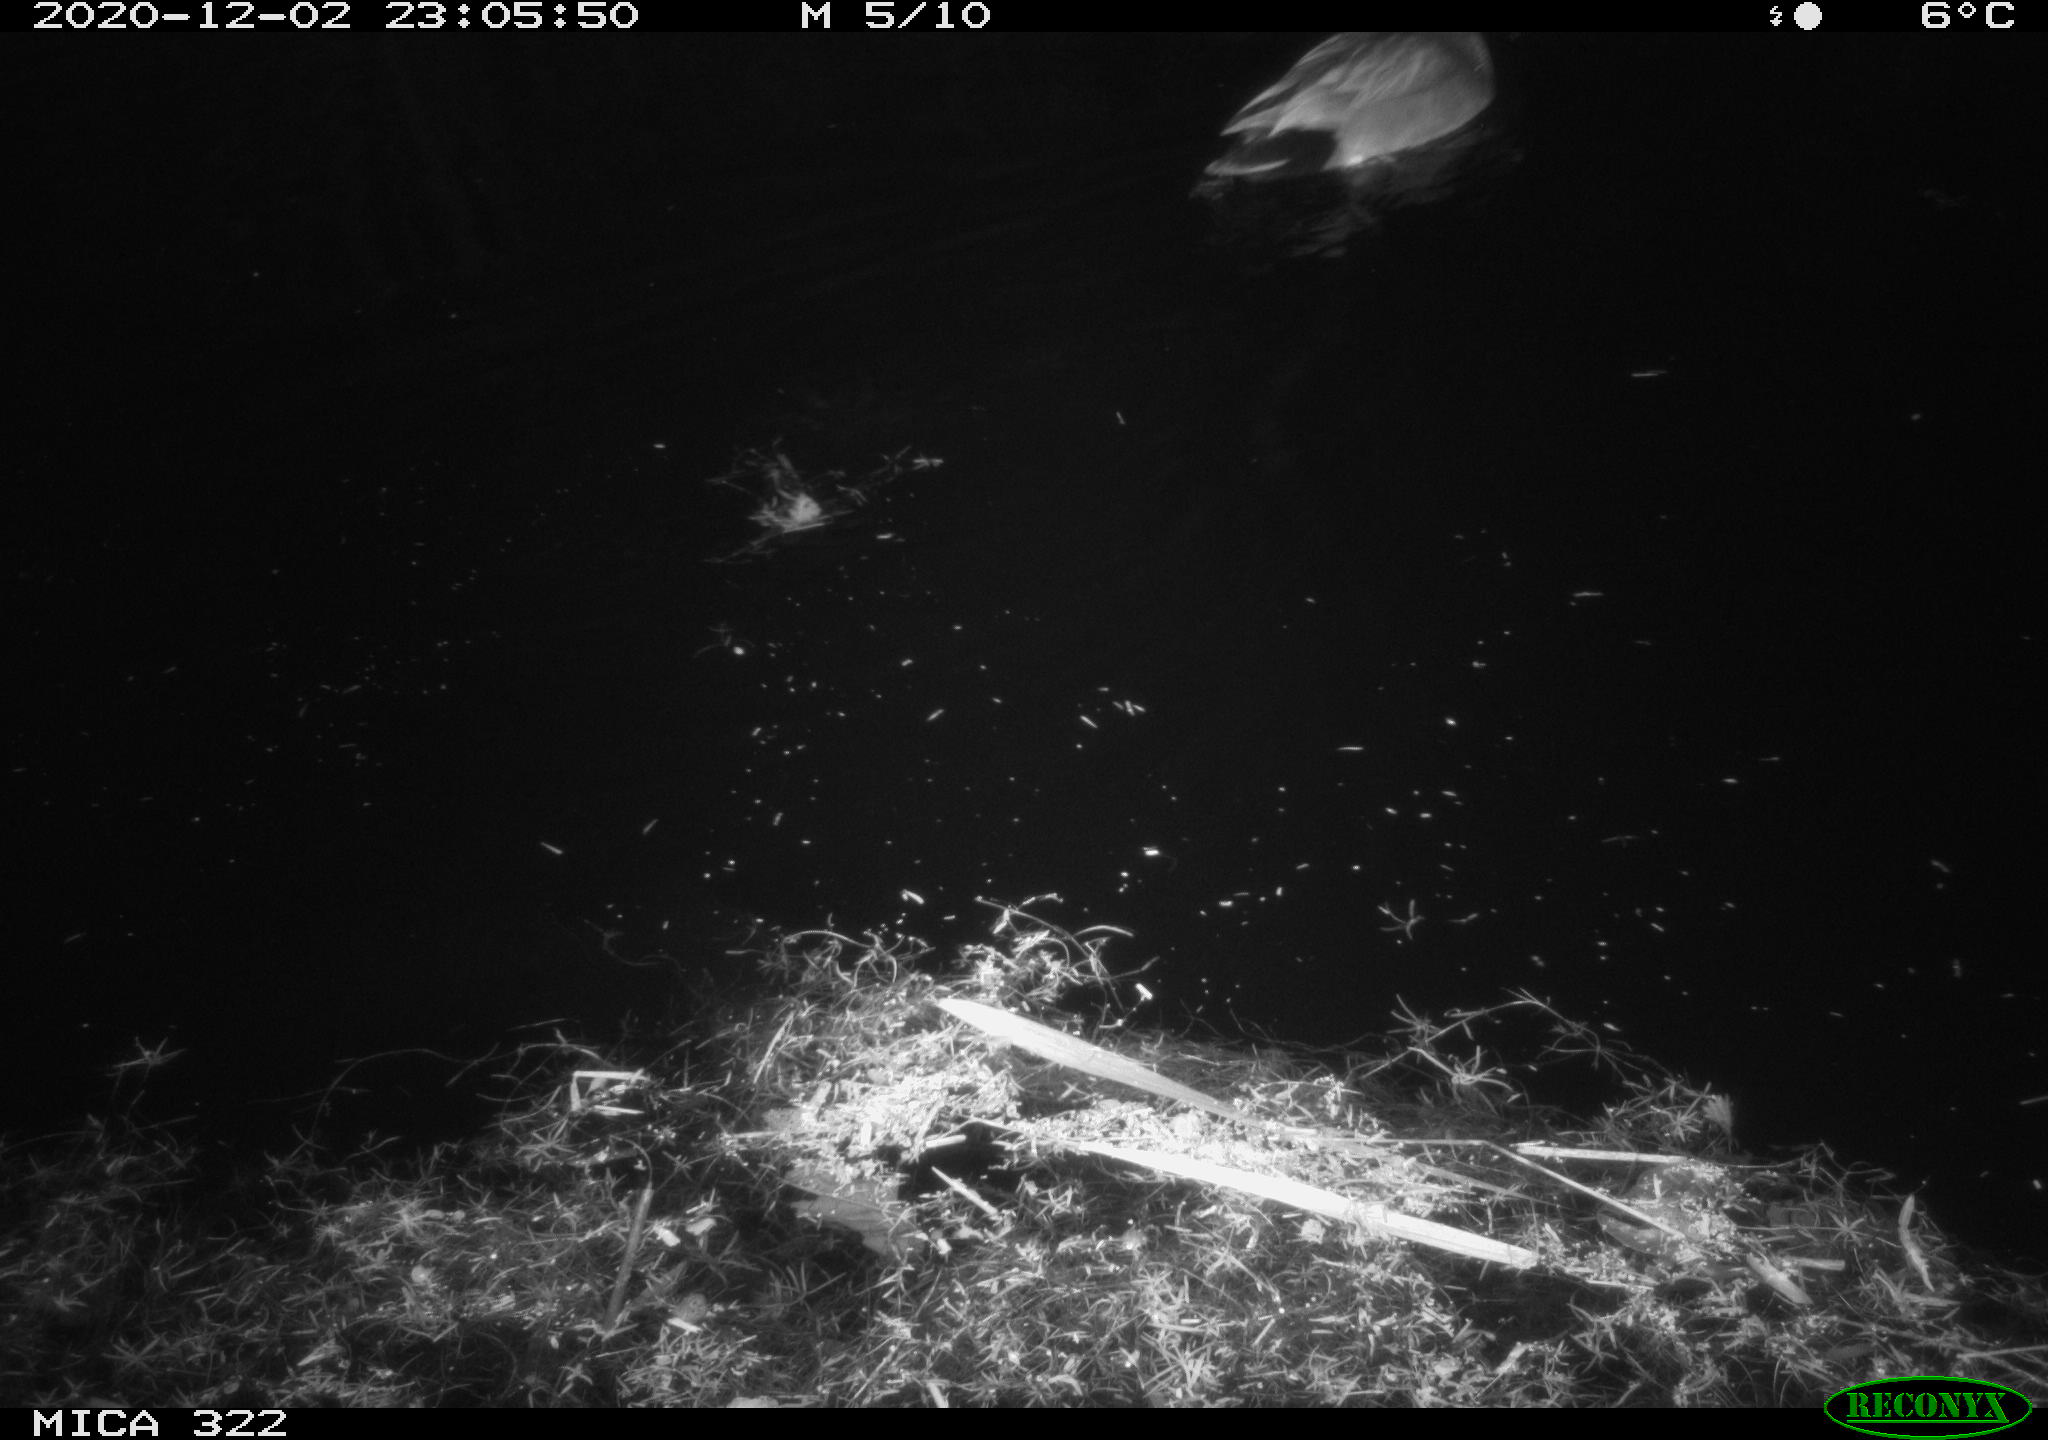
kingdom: Animalia
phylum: Chordata
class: Aves
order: Anseriformes
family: Anatidae
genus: Anas
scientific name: Anas platyrhynchos
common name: Mallard
